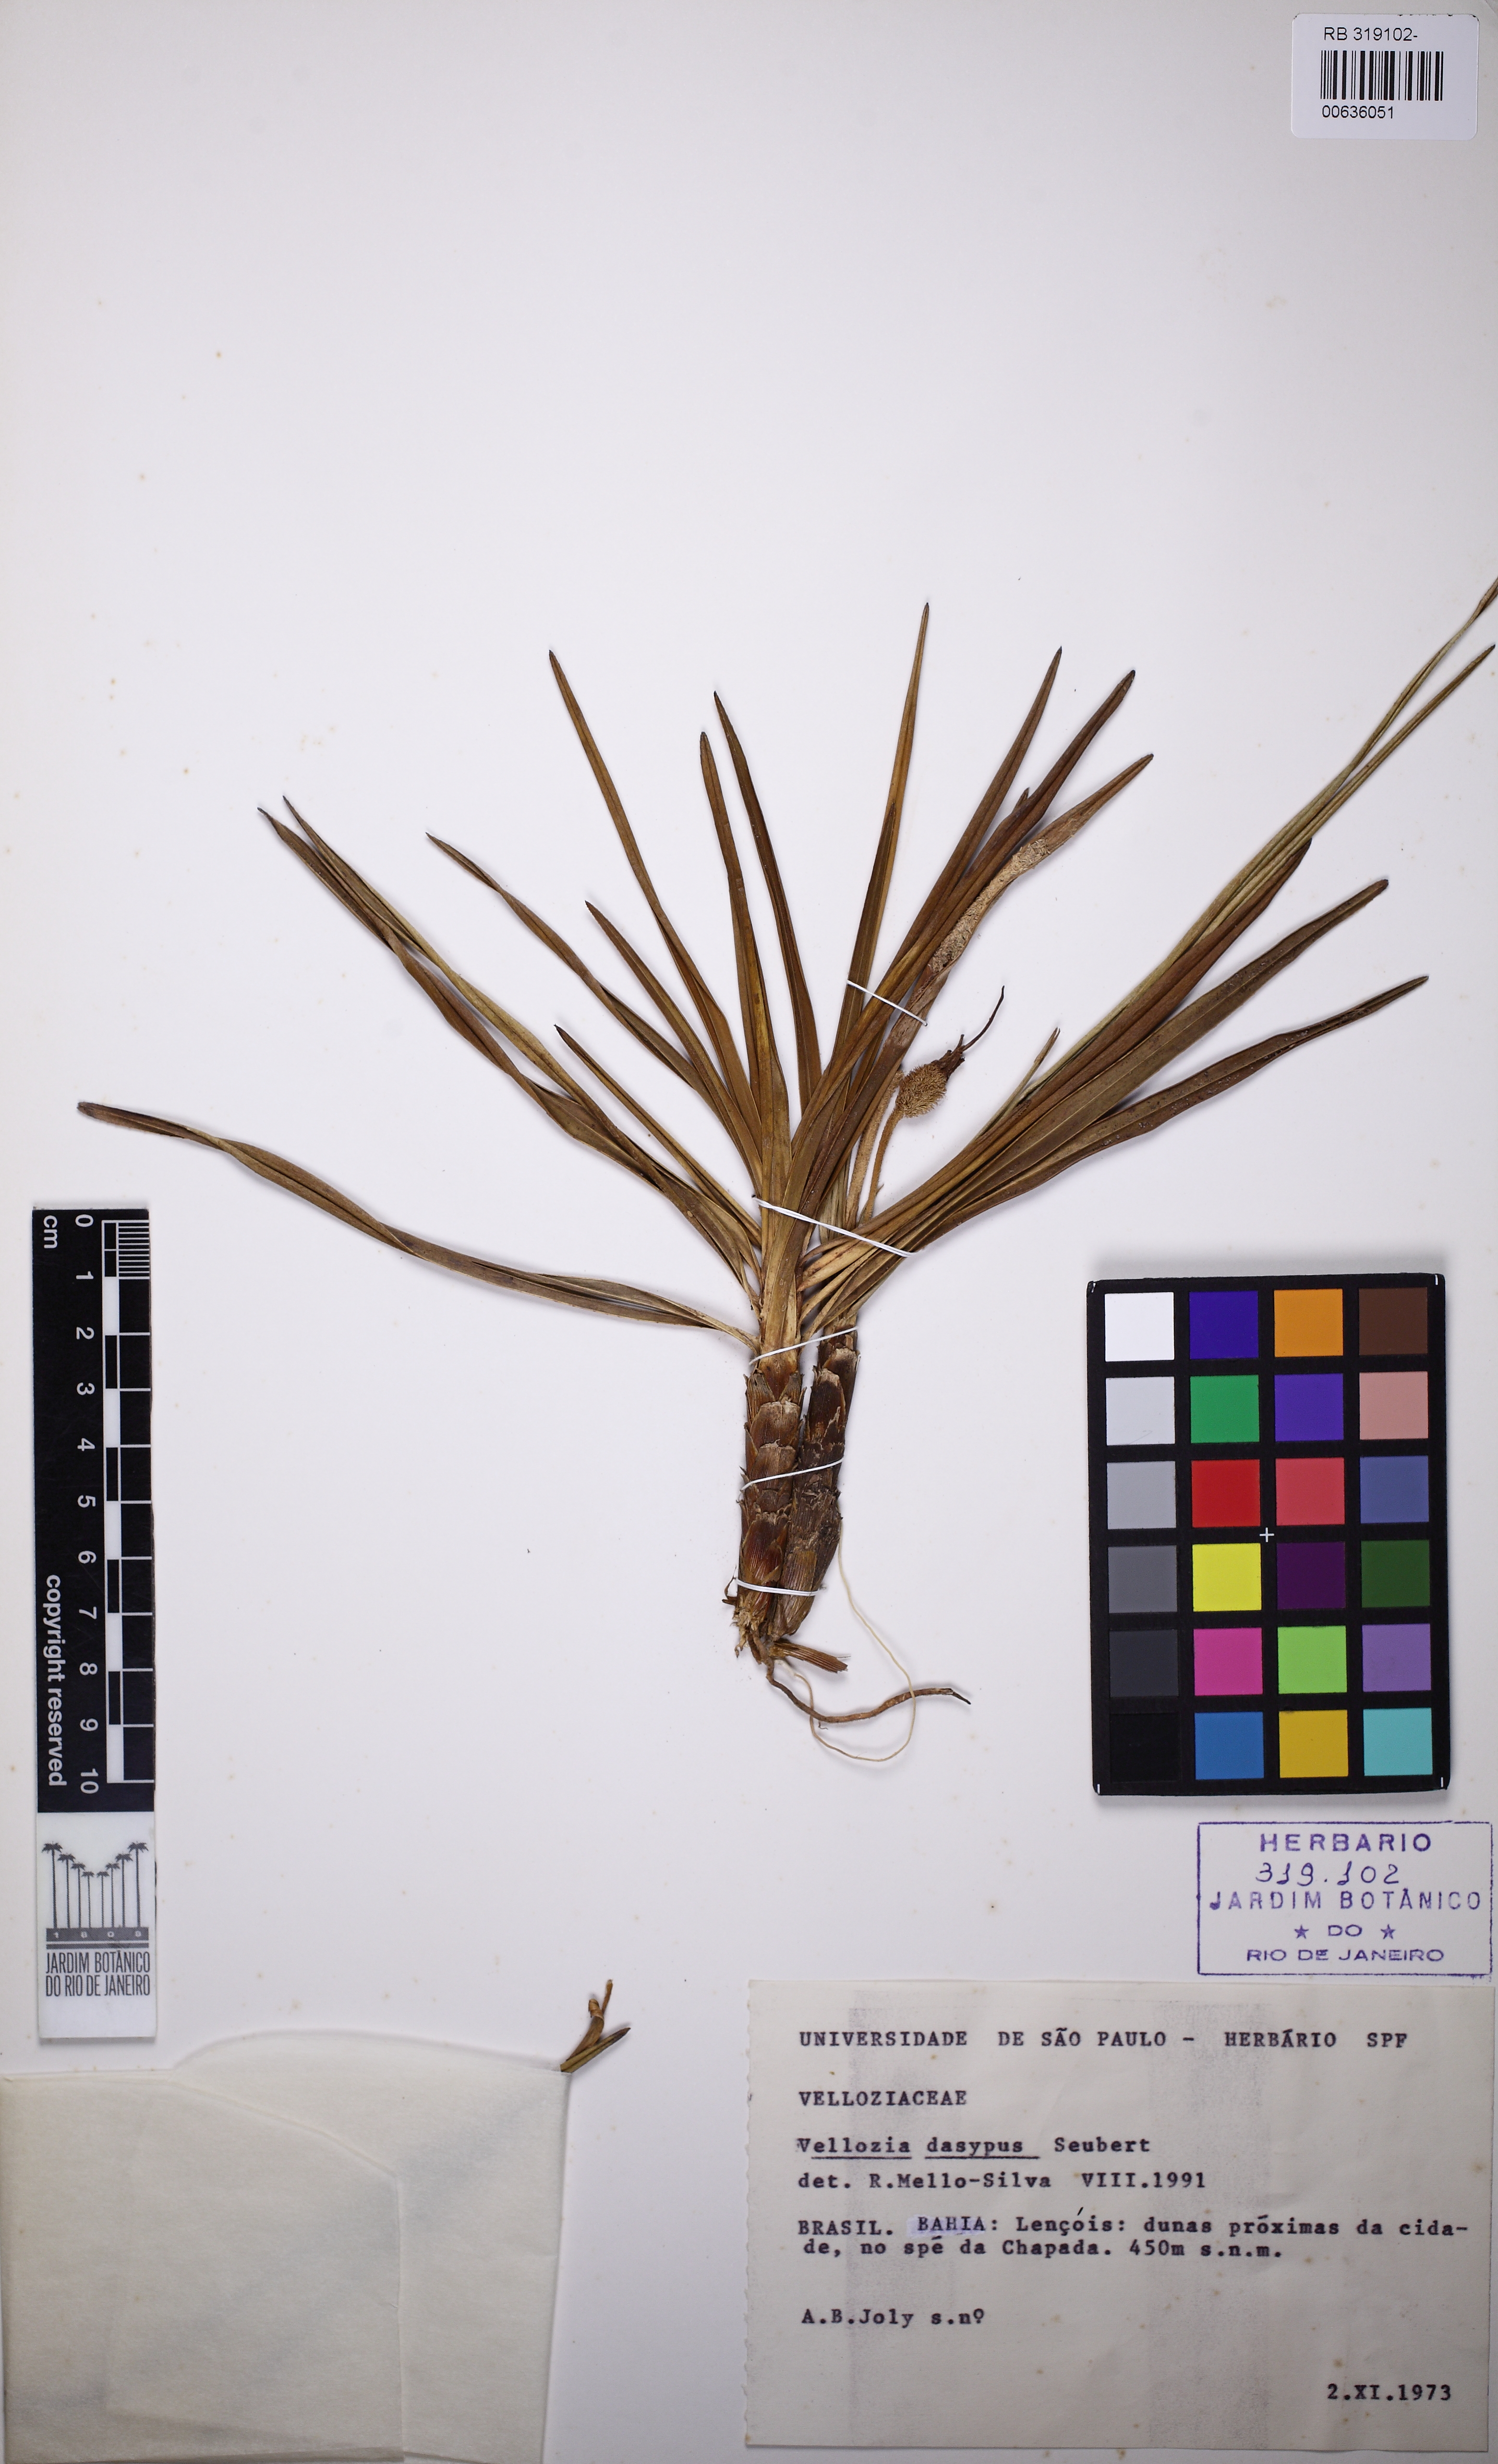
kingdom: Plantae
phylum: Tracheophyta
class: Liliopsida
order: Pandanales
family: Velloziaceae
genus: Vellozia
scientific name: Vellozia dasypus
